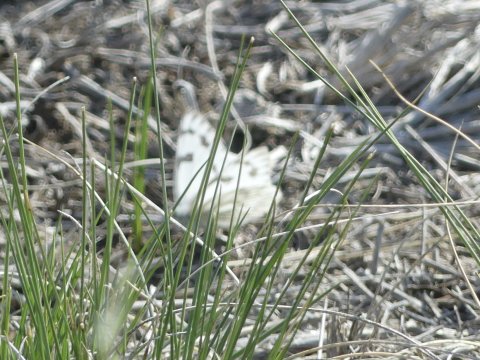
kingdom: Animalia
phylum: Arthropoda
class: Insecta
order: Lepidoptera
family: Pieridae
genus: Pontia
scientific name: Pontia occidentalis
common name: Western White
